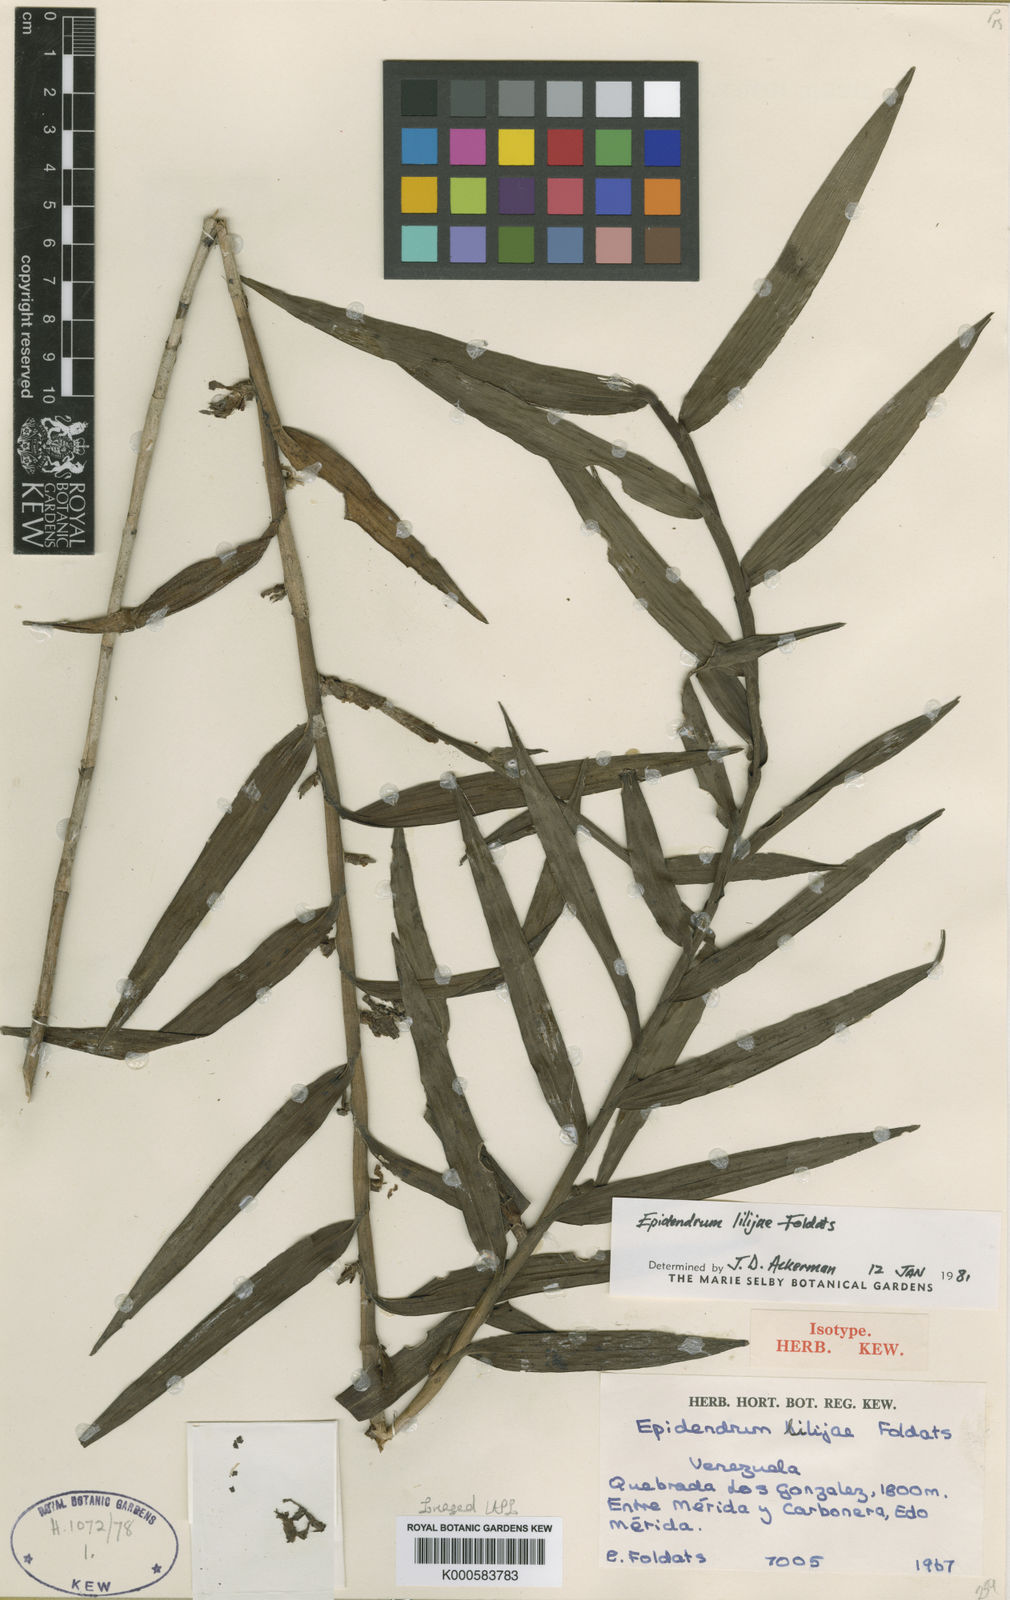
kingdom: Plantae
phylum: Tracheophyta
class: Liliopsida
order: Asparagales
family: Orchidaceae
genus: Epidendrum
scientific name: Epidendrum lilijae
